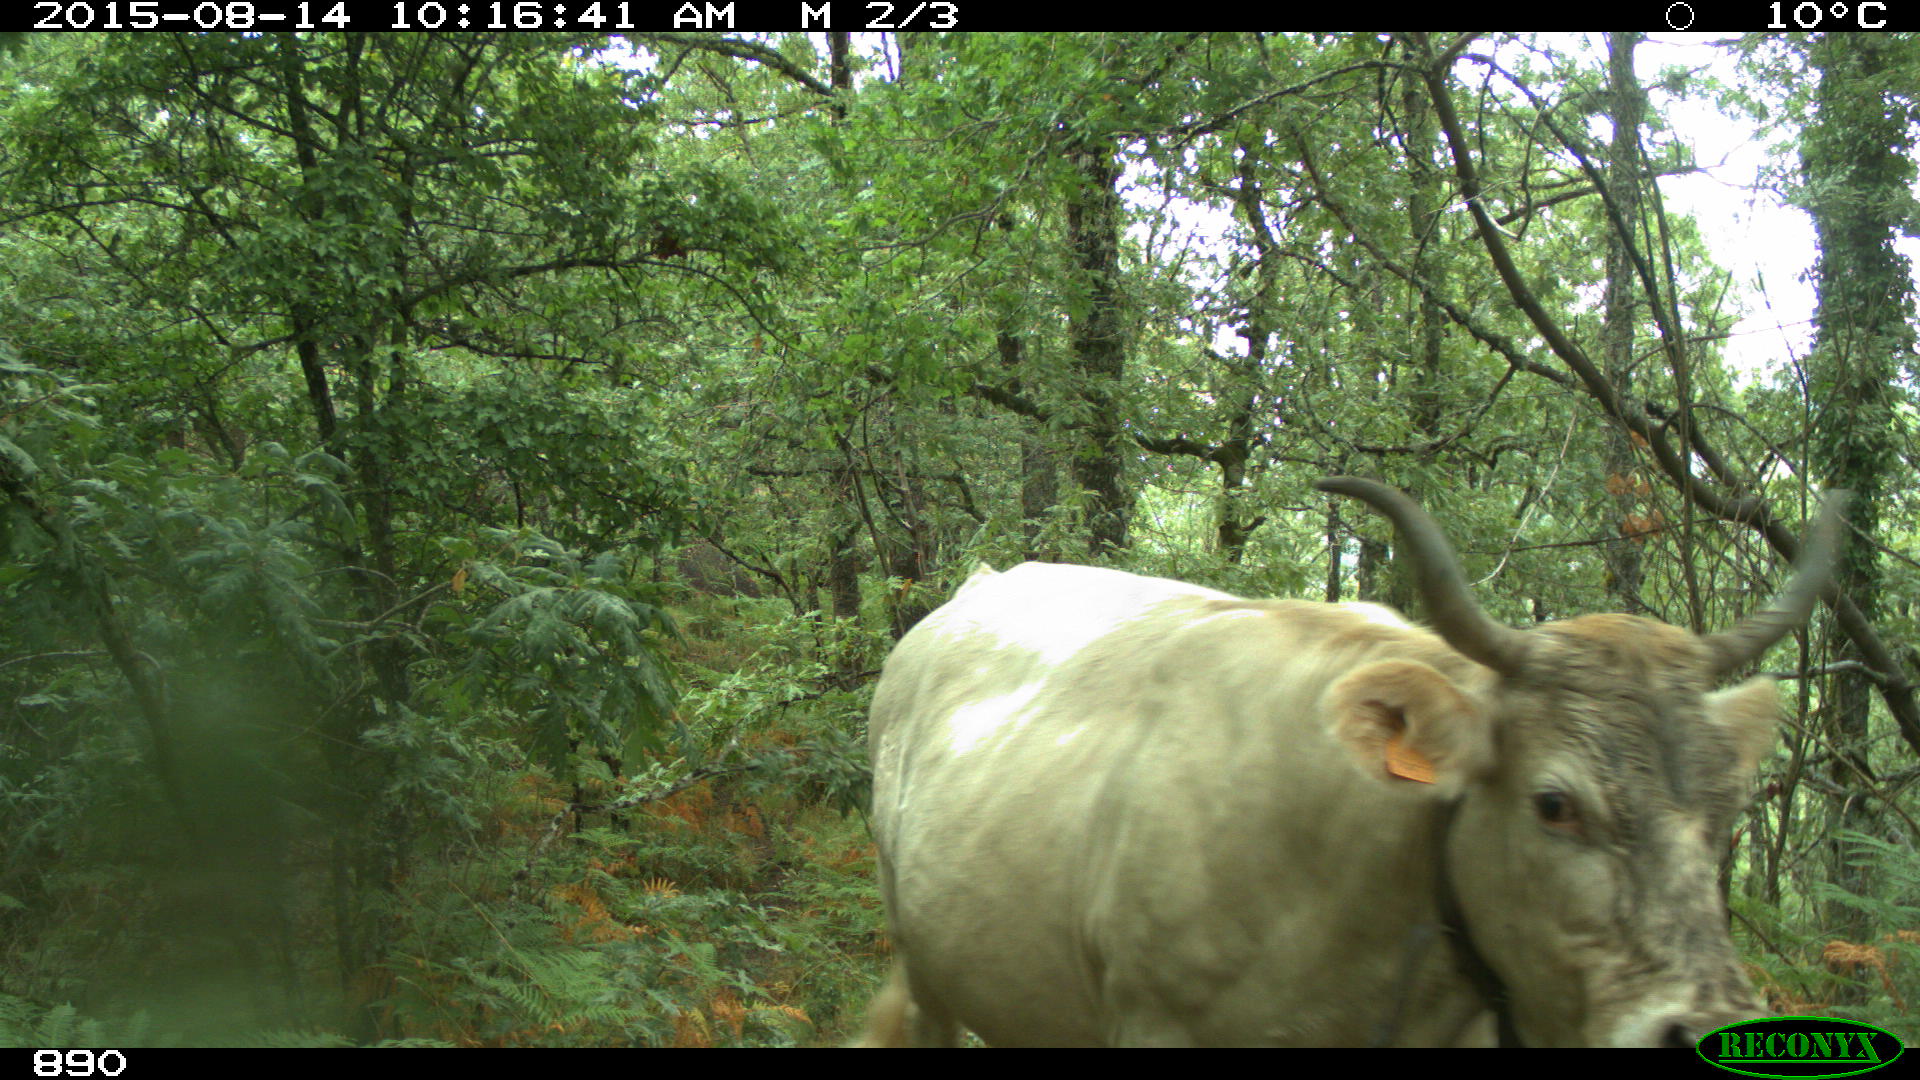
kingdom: Animalia
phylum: Chordata
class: Mammalia
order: Artiodactyla
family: Bovidae
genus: Bos
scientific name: Bos taurus
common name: Domesticated cattle
